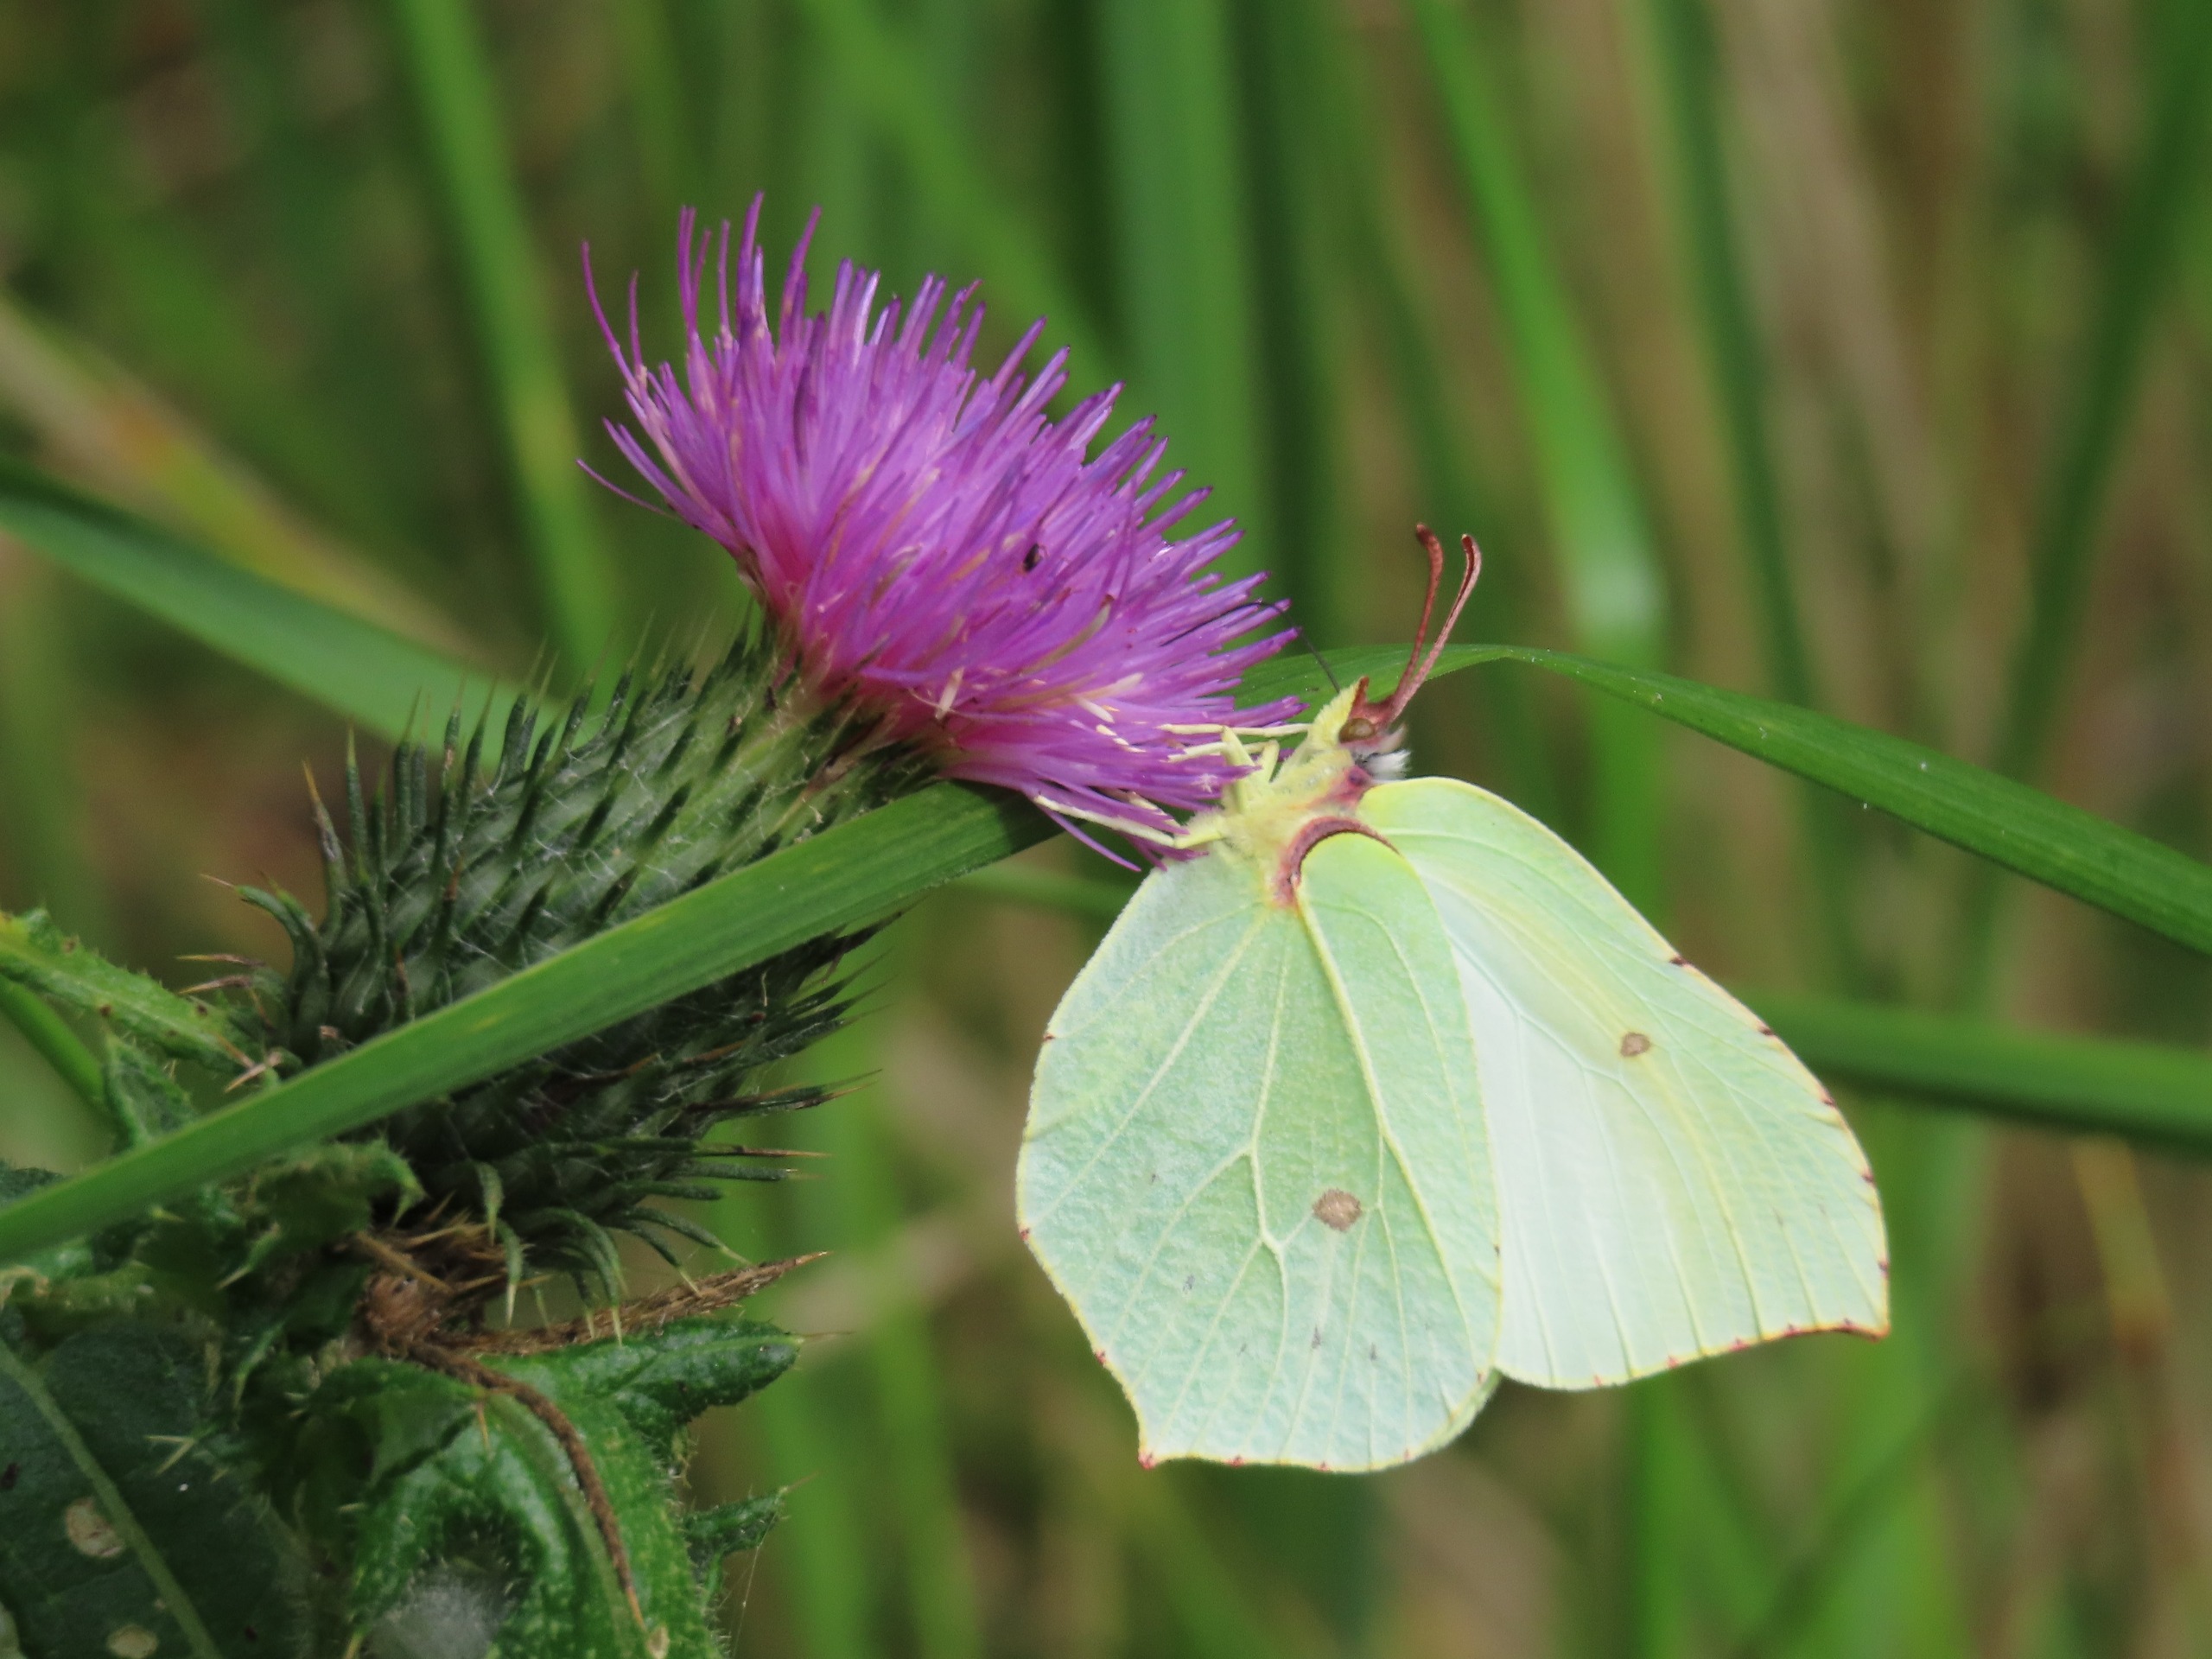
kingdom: Animalia
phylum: Arthropoda
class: Insecta
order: Lepidoptera
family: Pieridae
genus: Gonepteryx
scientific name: Gonepteryx rhamni
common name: Citronsommerfugl
